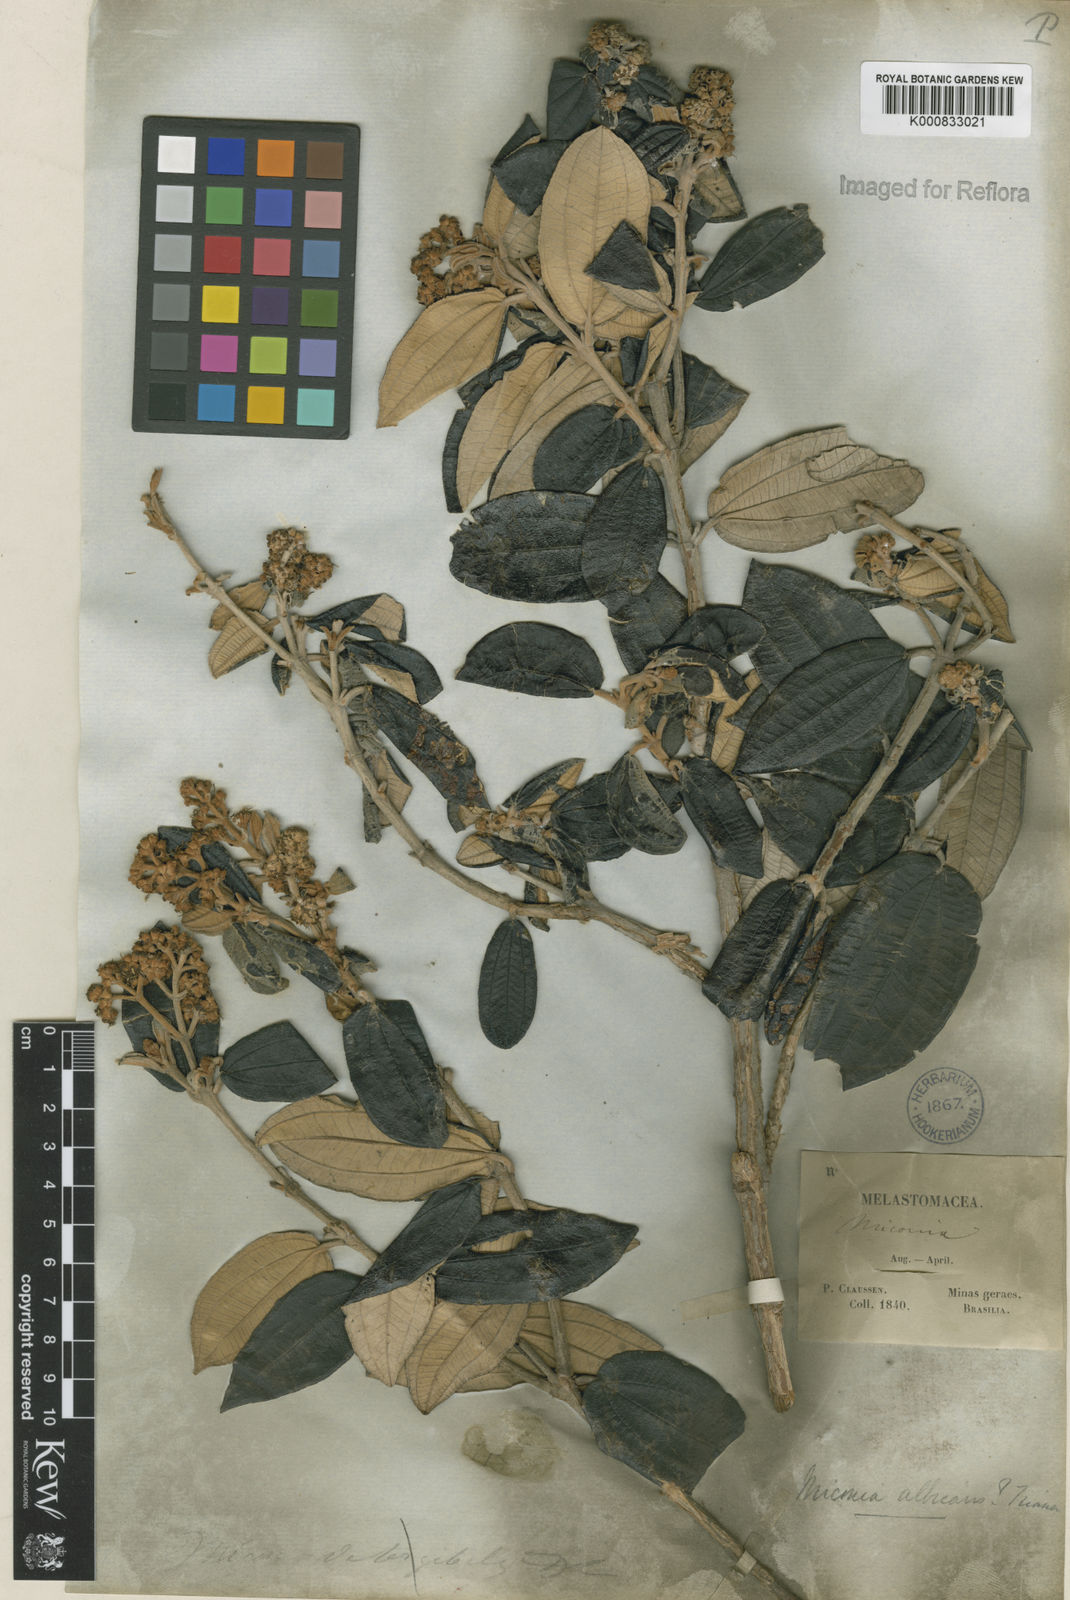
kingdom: Plantae
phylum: Tracheophyta
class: Magnoliopsida
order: Myrtales
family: Melastomataceae
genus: Miconia
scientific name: Miconia albicans
